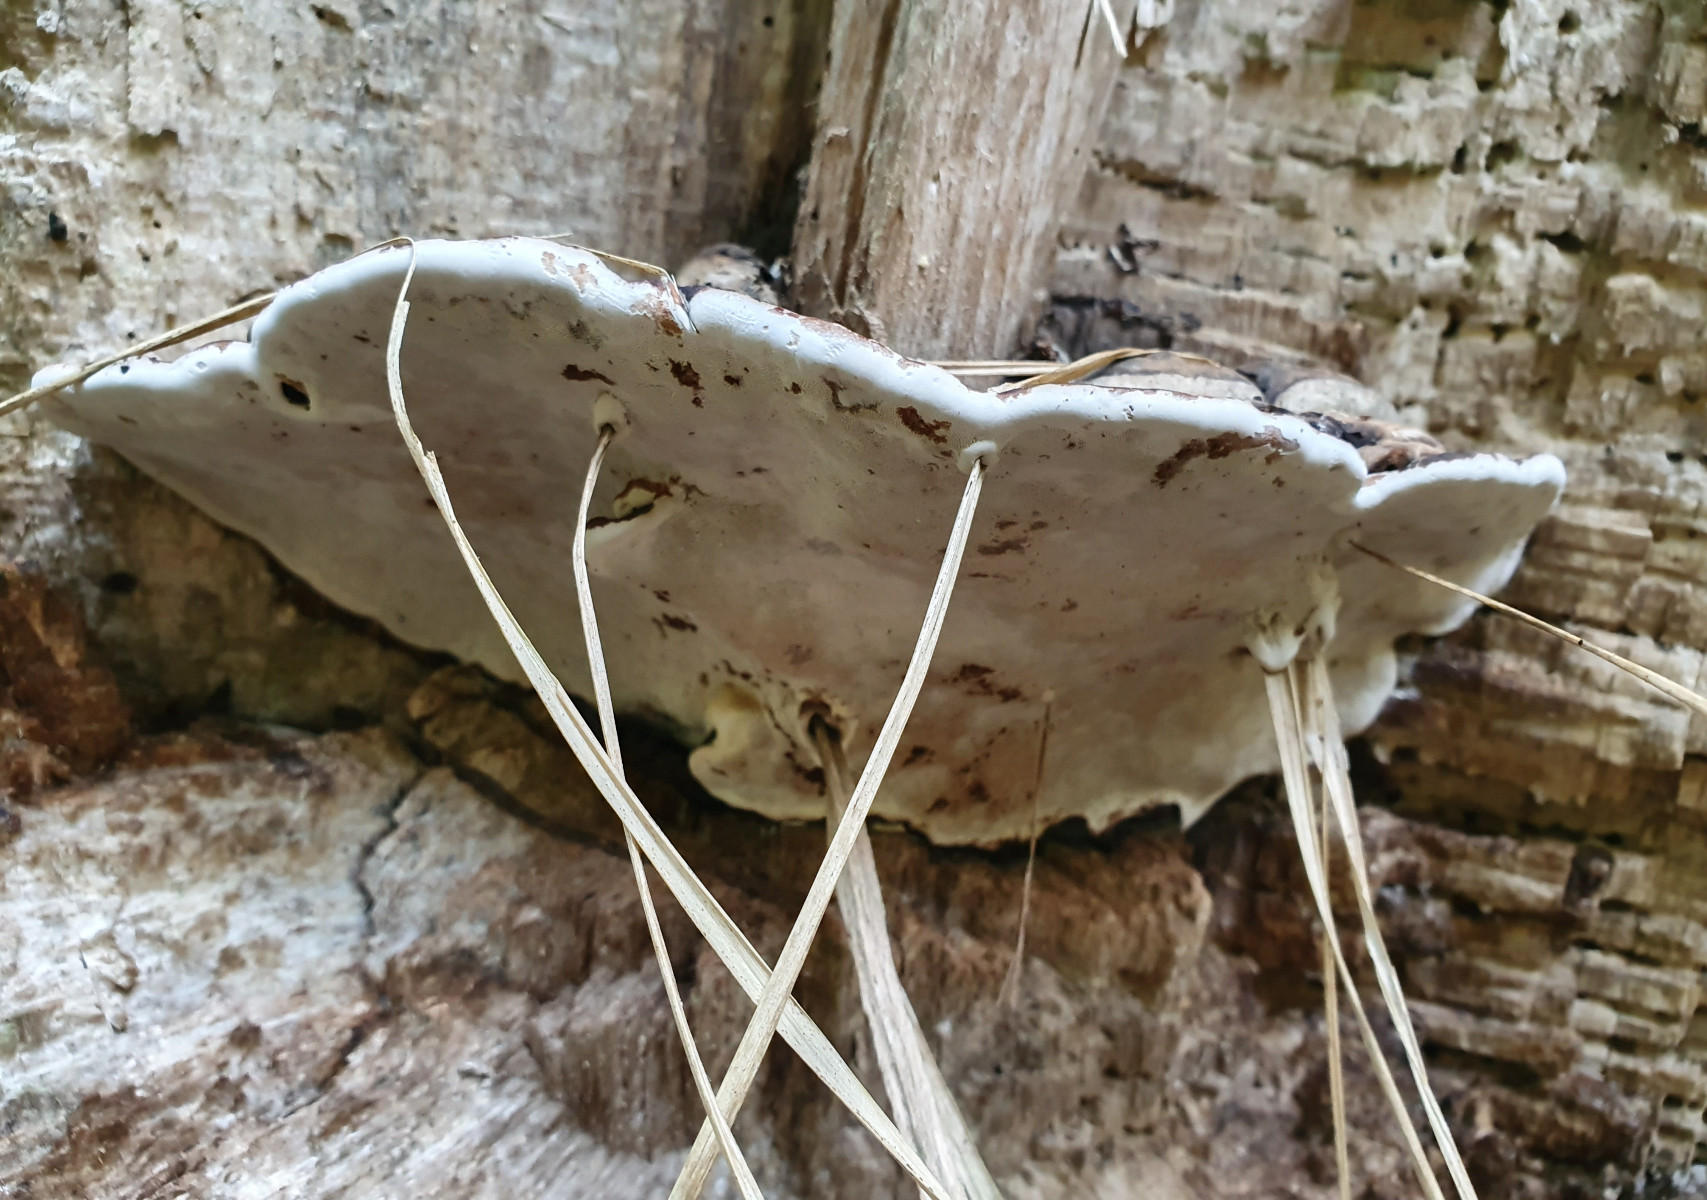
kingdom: Fungi
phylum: Basidiomycota
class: Agaricomycetes
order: Polyporales
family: Polyporaceae
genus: Ganoderma
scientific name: Ganoderma applanatum
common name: flad lakporesvamp
